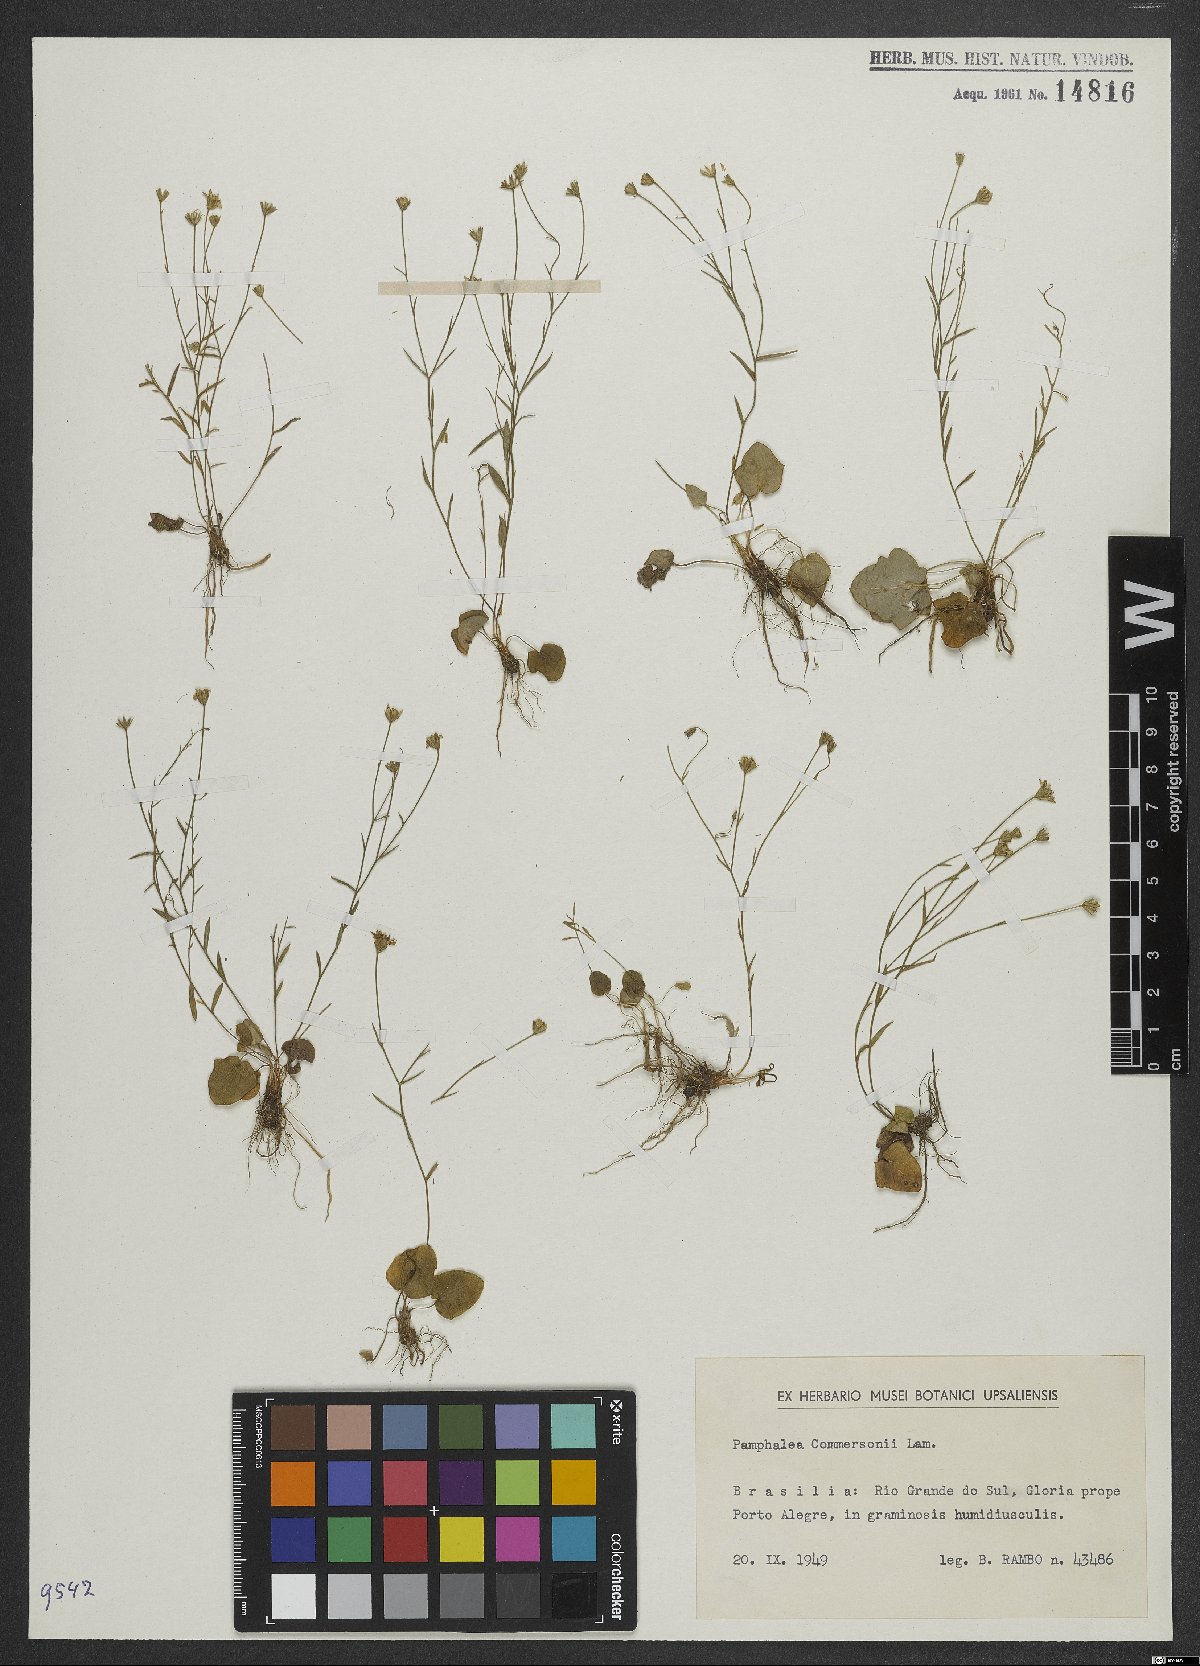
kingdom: Plantae
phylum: Tracheophyta
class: Magnoliopsida
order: Asterales
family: Asteraceae
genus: Panphalea
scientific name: Panphalea commersonii
